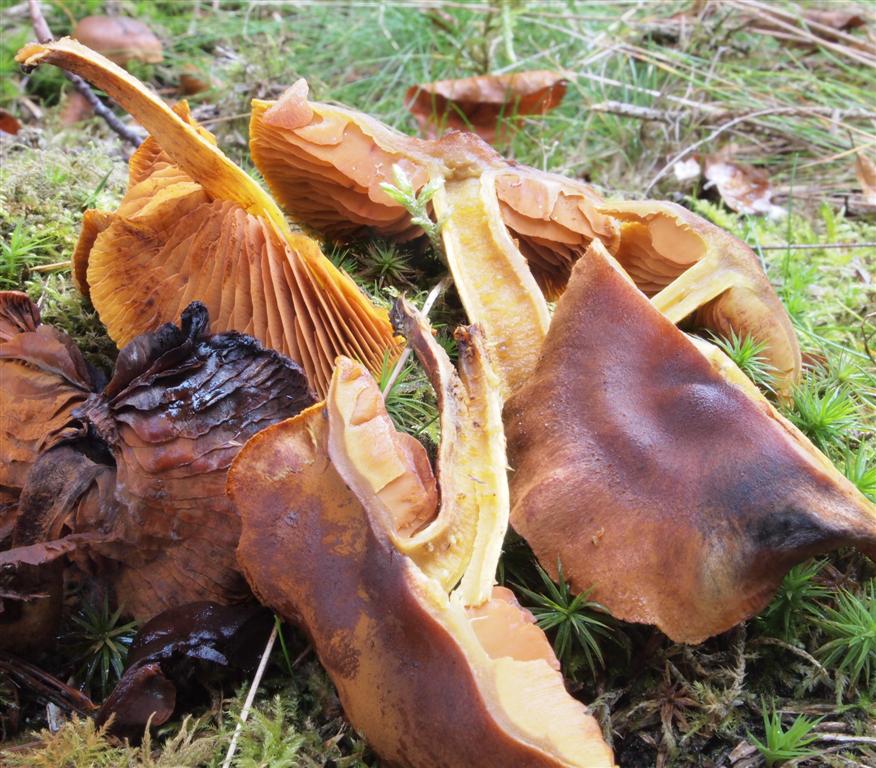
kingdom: Fungi
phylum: Basidiomycota
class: Agaricomycetes
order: Agaricales
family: Cortinariaceae
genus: Cortinarius
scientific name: Cortinarius malicorius
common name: grønkødet slørhat
